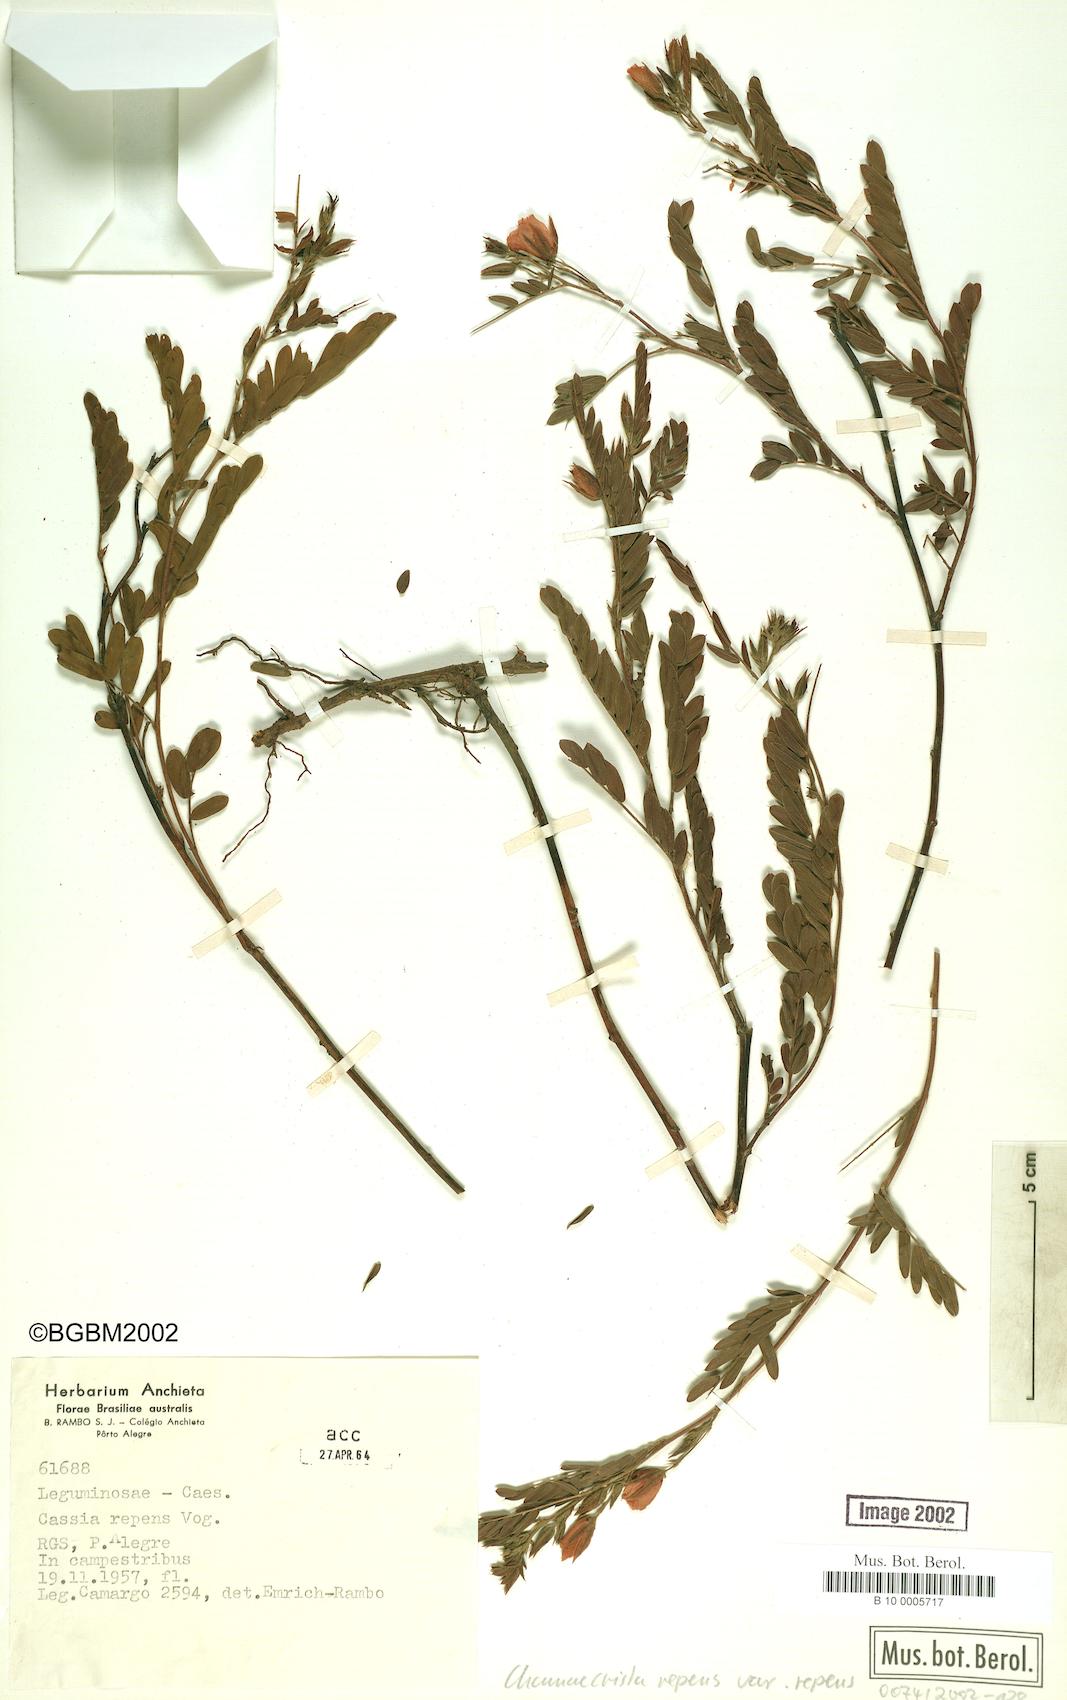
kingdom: Plantae
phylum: Tracheophyta
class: Magnoliopsida
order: Fabales
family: Fabaceae
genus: Chamaecrista
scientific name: Chamaecrista repens
